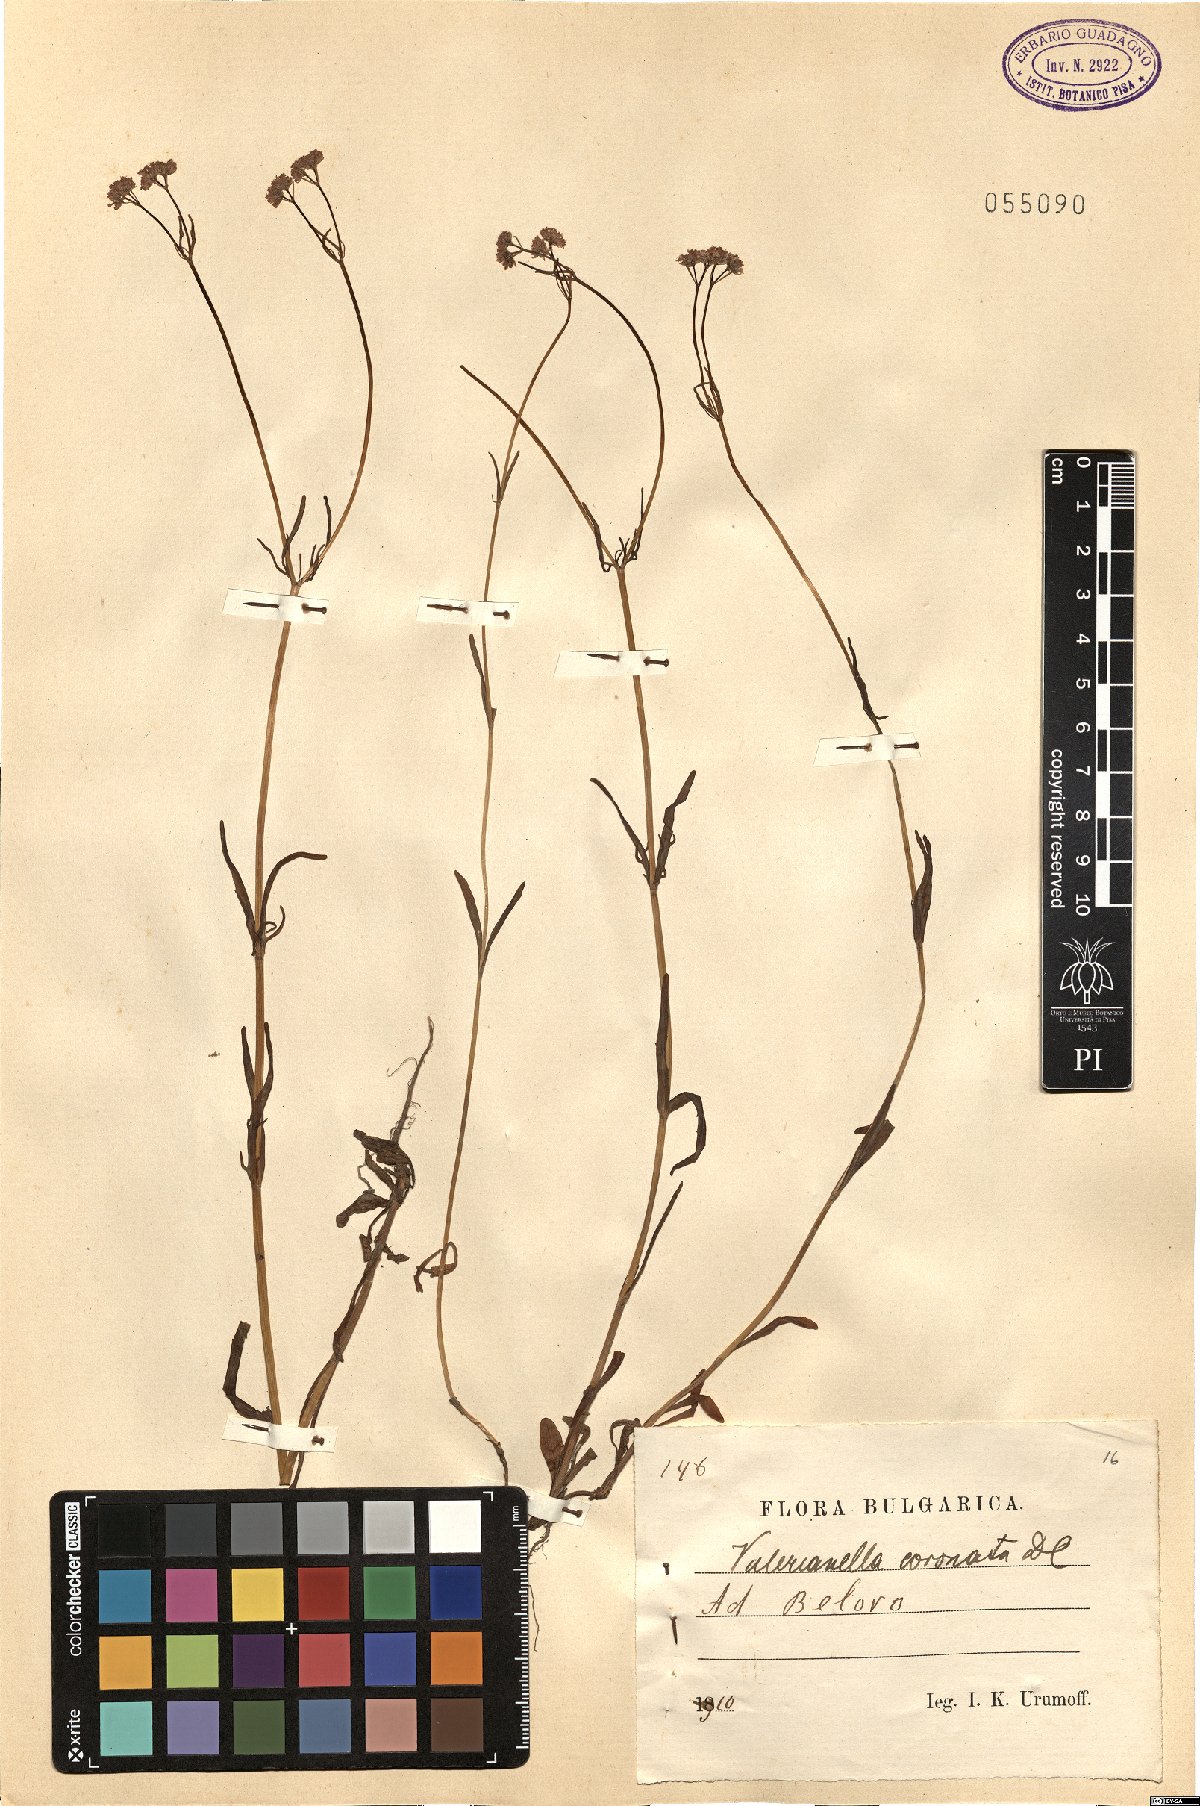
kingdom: Plantae
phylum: Tracheophyta
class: Magnoliopsida
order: Dipsacales
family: Caprifoliaceae
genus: Valerianella
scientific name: Valerianella coronata
